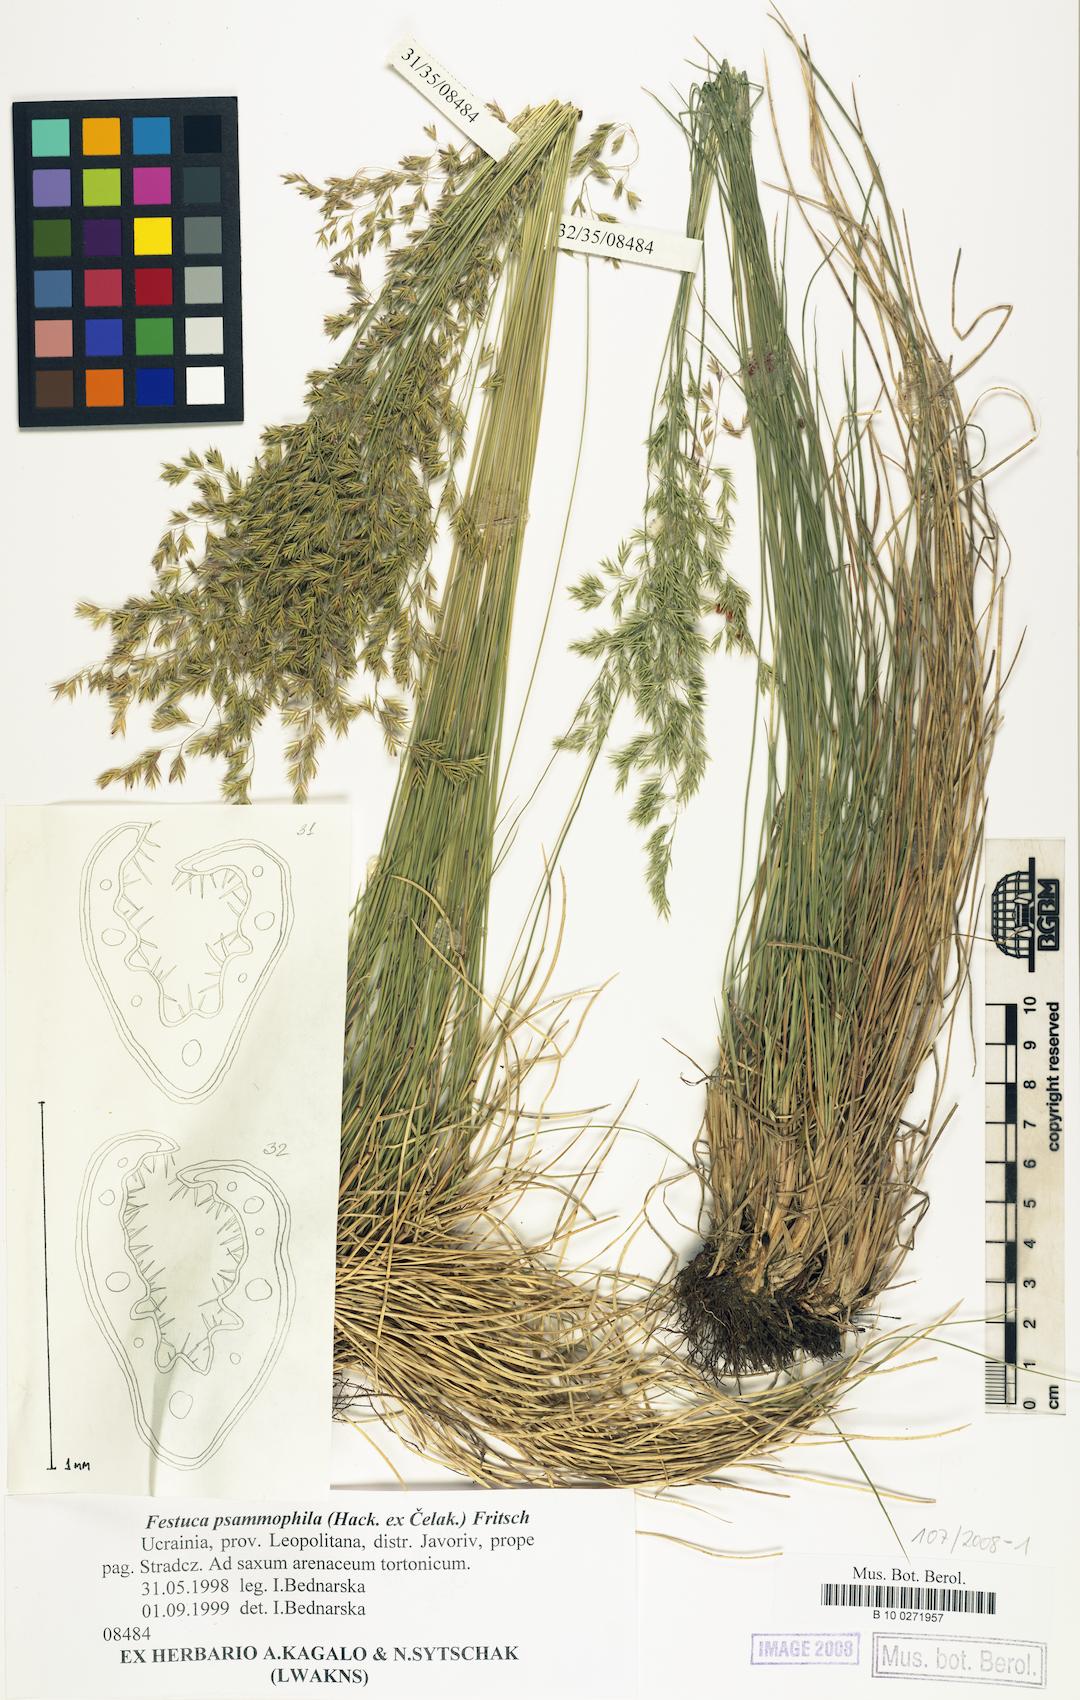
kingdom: Plantae
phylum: Tracheophyta
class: Liliopsida
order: Poales
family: Poaceae
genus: Festuca
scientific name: Festuca psammophila
